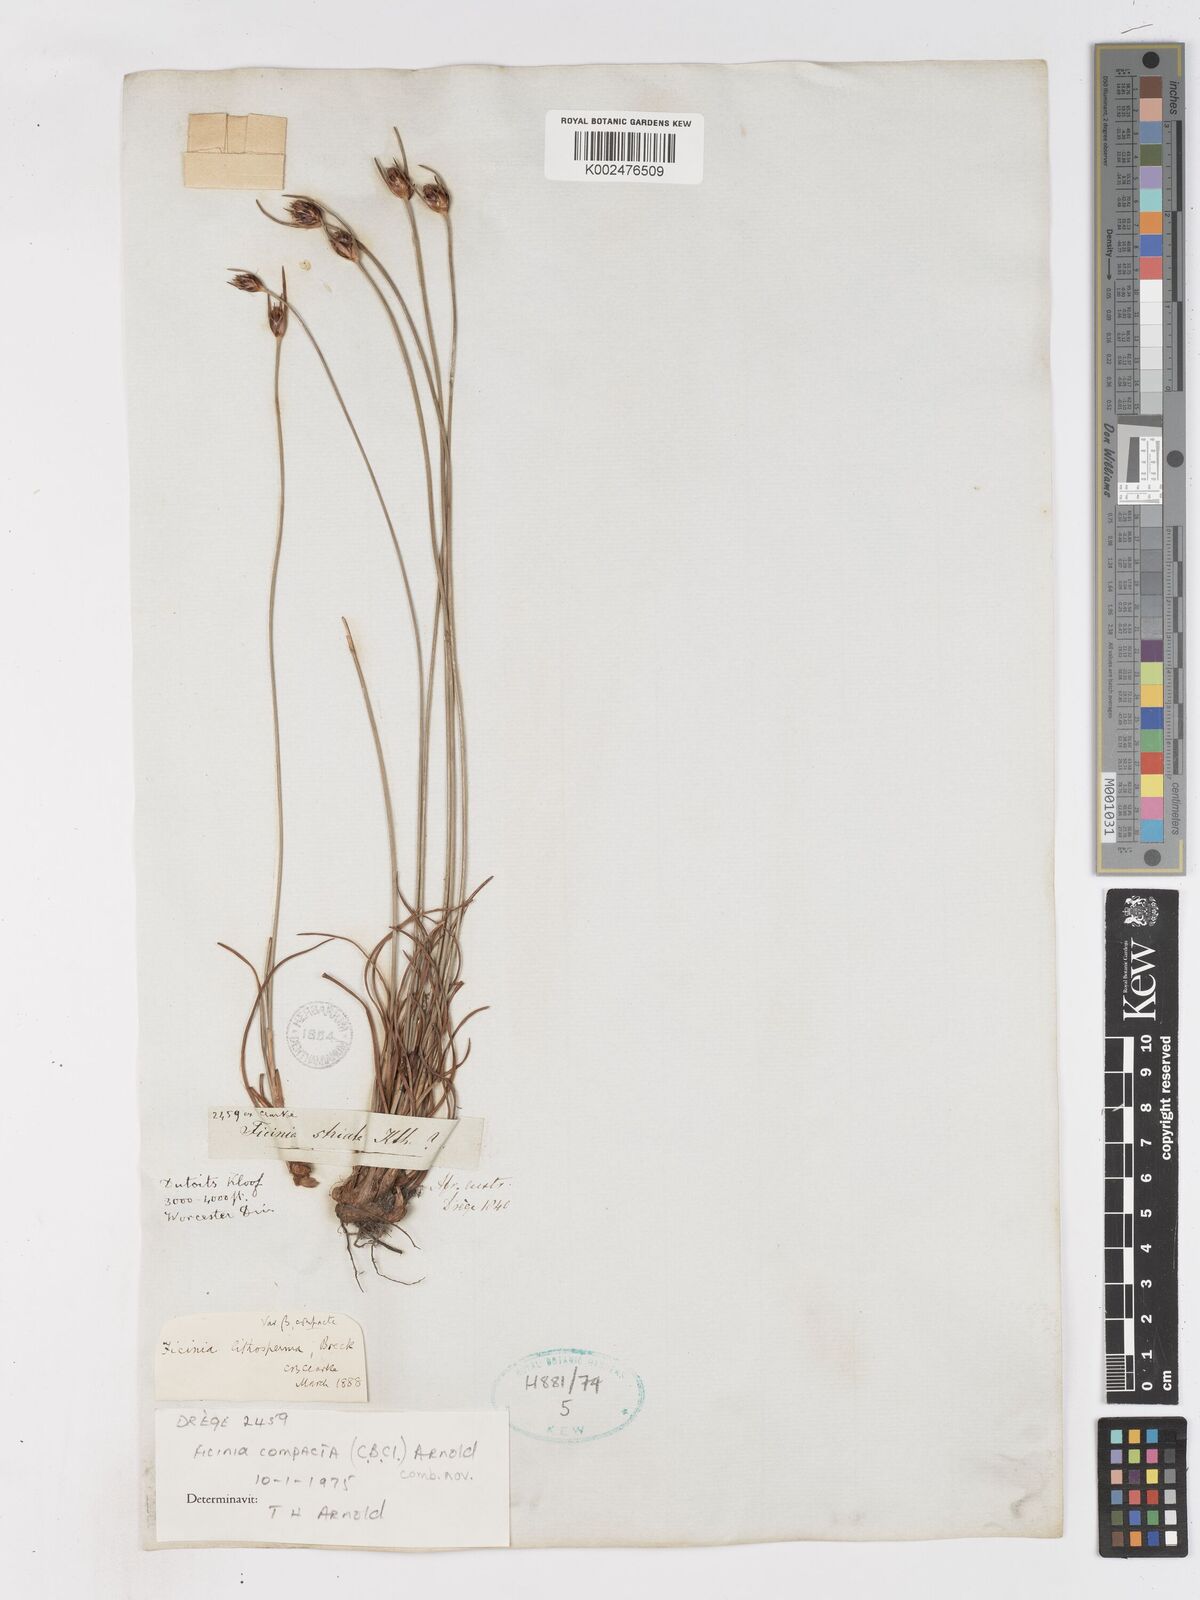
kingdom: Plantae
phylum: Tracheophyta
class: Liliopsida
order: Poales
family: Cyperaceae
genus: Ficinia
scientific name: Ficinia
